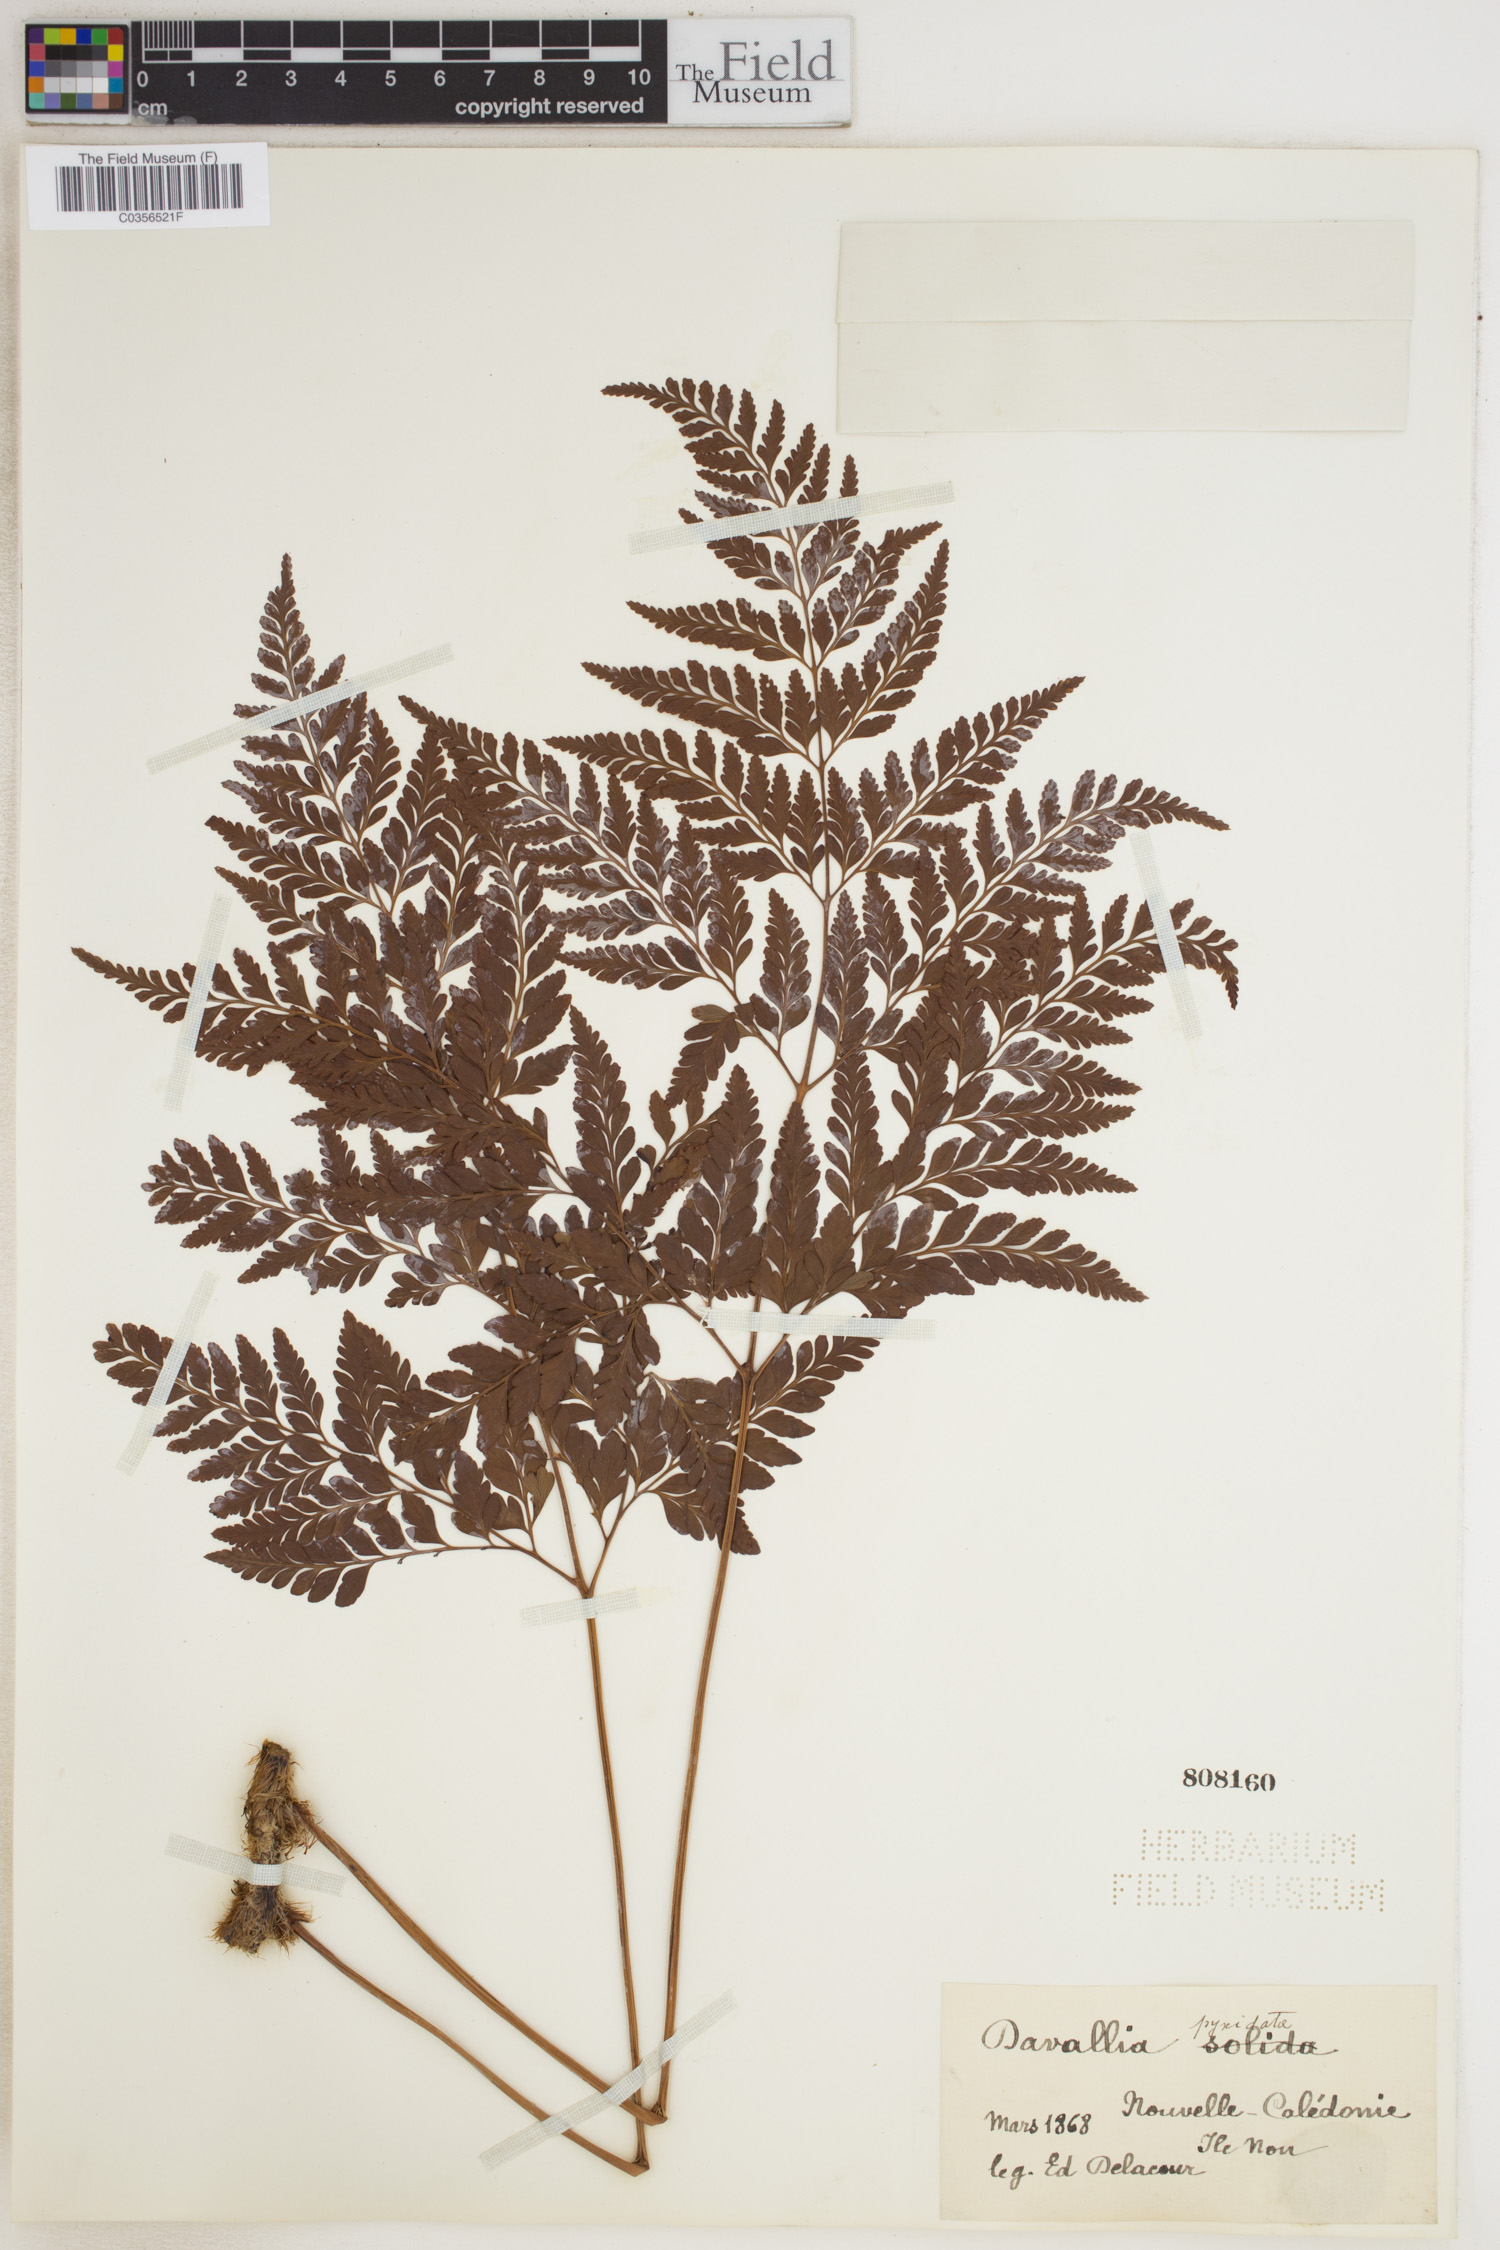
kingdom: Plantae
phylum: Tracheophyta
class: Polypodiopsida
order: Polypodiales
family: Davalliaceae
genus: Davallia
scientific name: Davallia pyxidata
